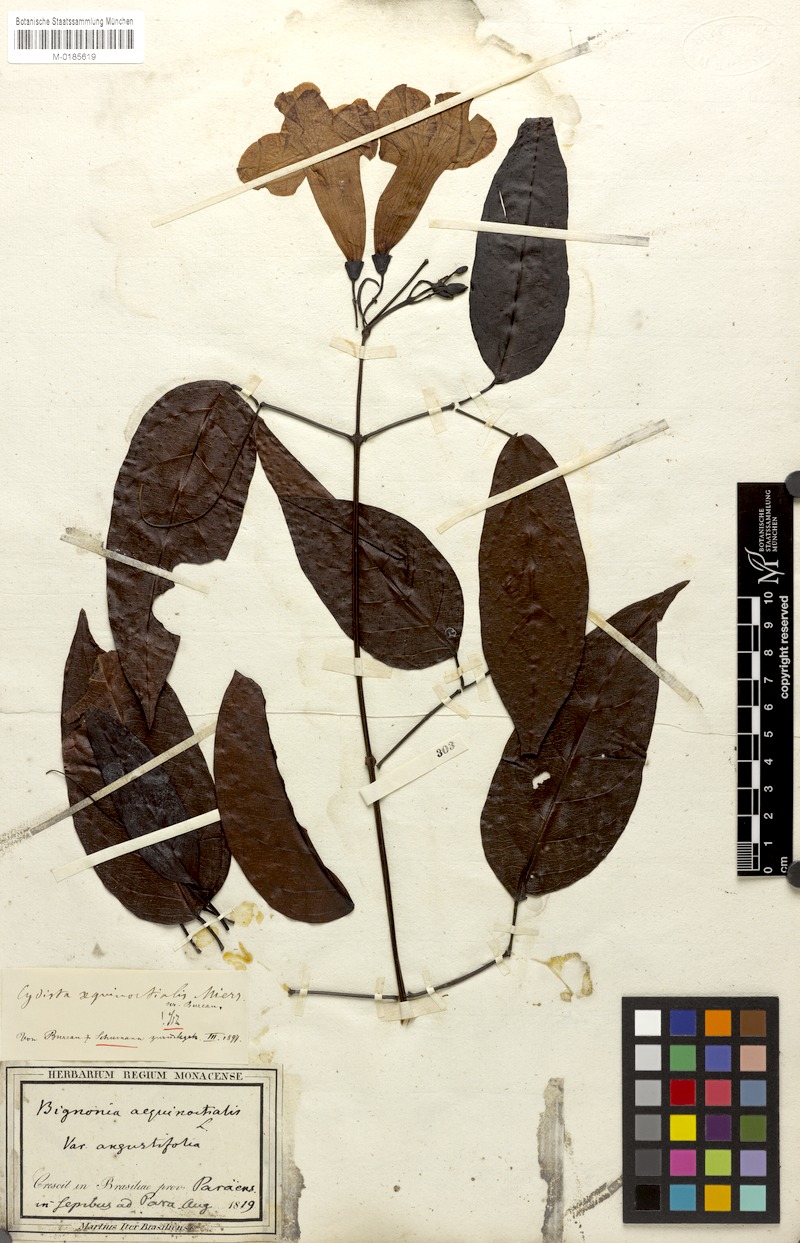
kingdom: Plantae
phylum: Tracheophyta
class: Magnoliopsida
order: Lamiales
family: Bignoniaceae
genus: Bignonia
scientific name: Bignonia aequinoctialis
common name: Garlicvine
